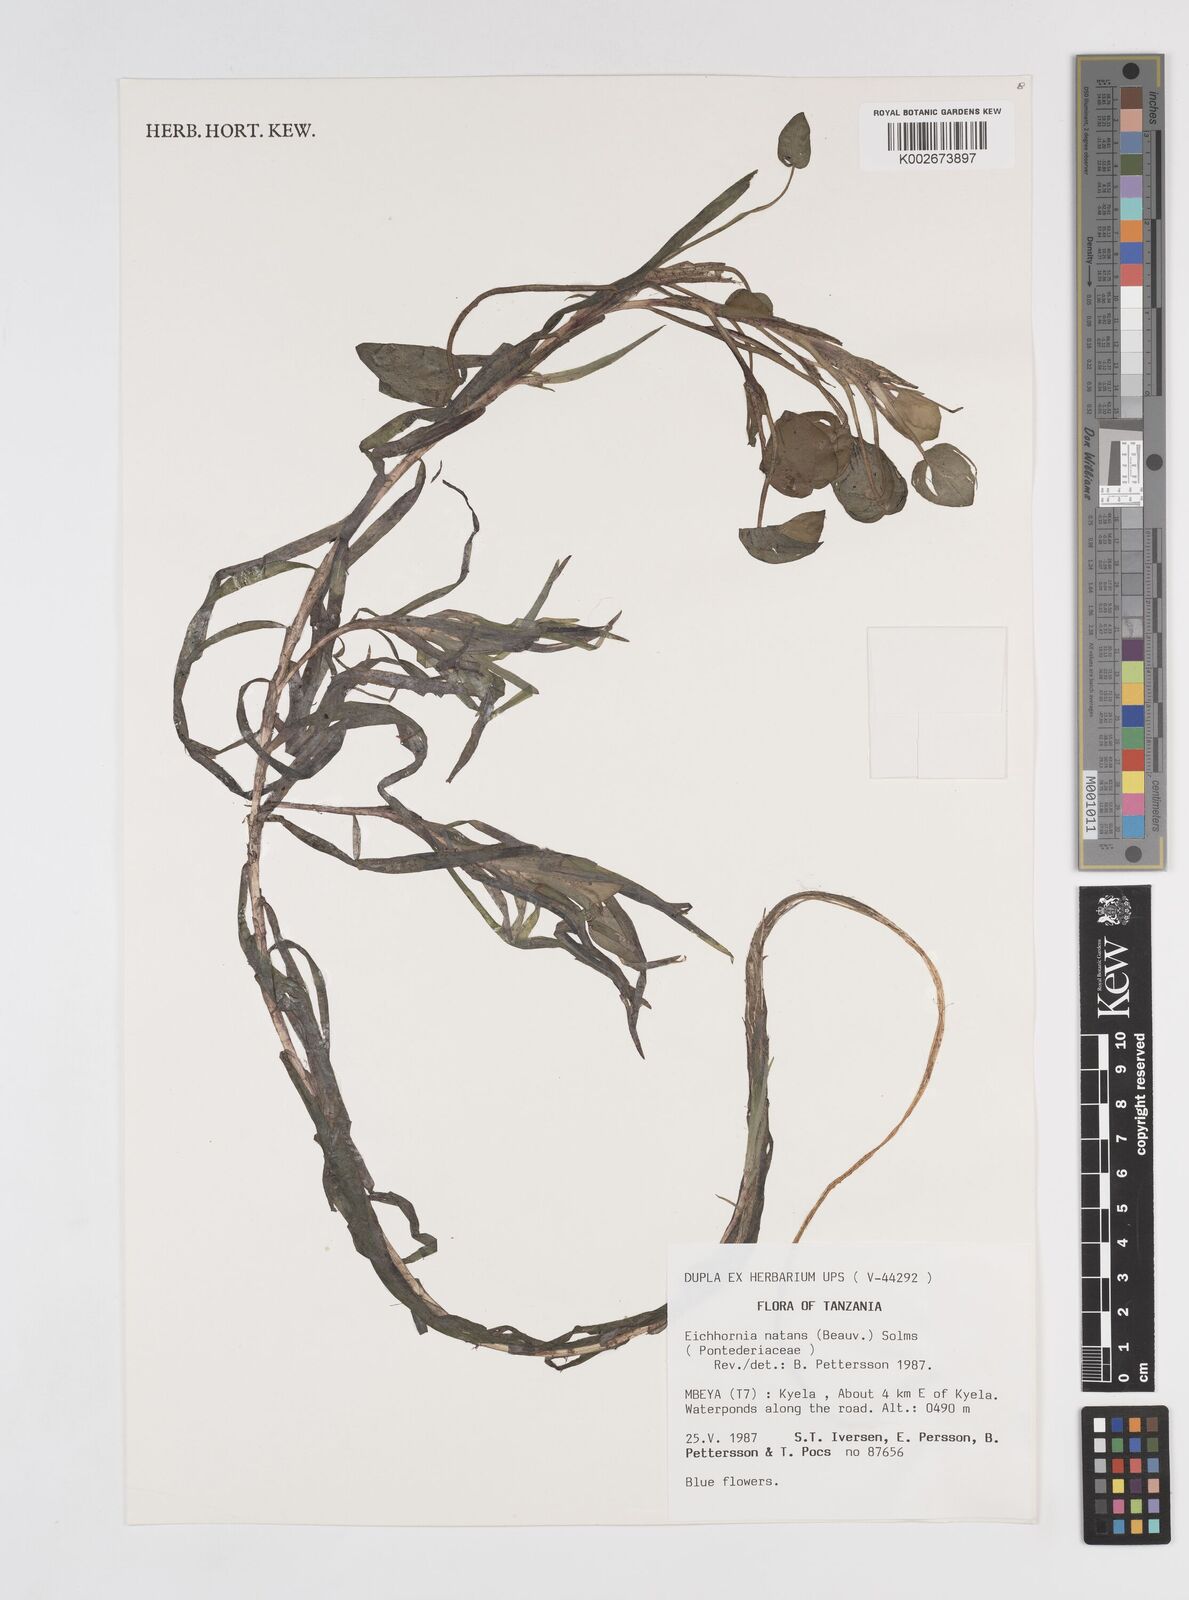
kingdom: Plantae
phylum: Tracheophyta
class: Liliopsida
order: Commelinales
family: Pontederiaceae
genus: Pontederia
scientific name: Pontederia diversifolia
